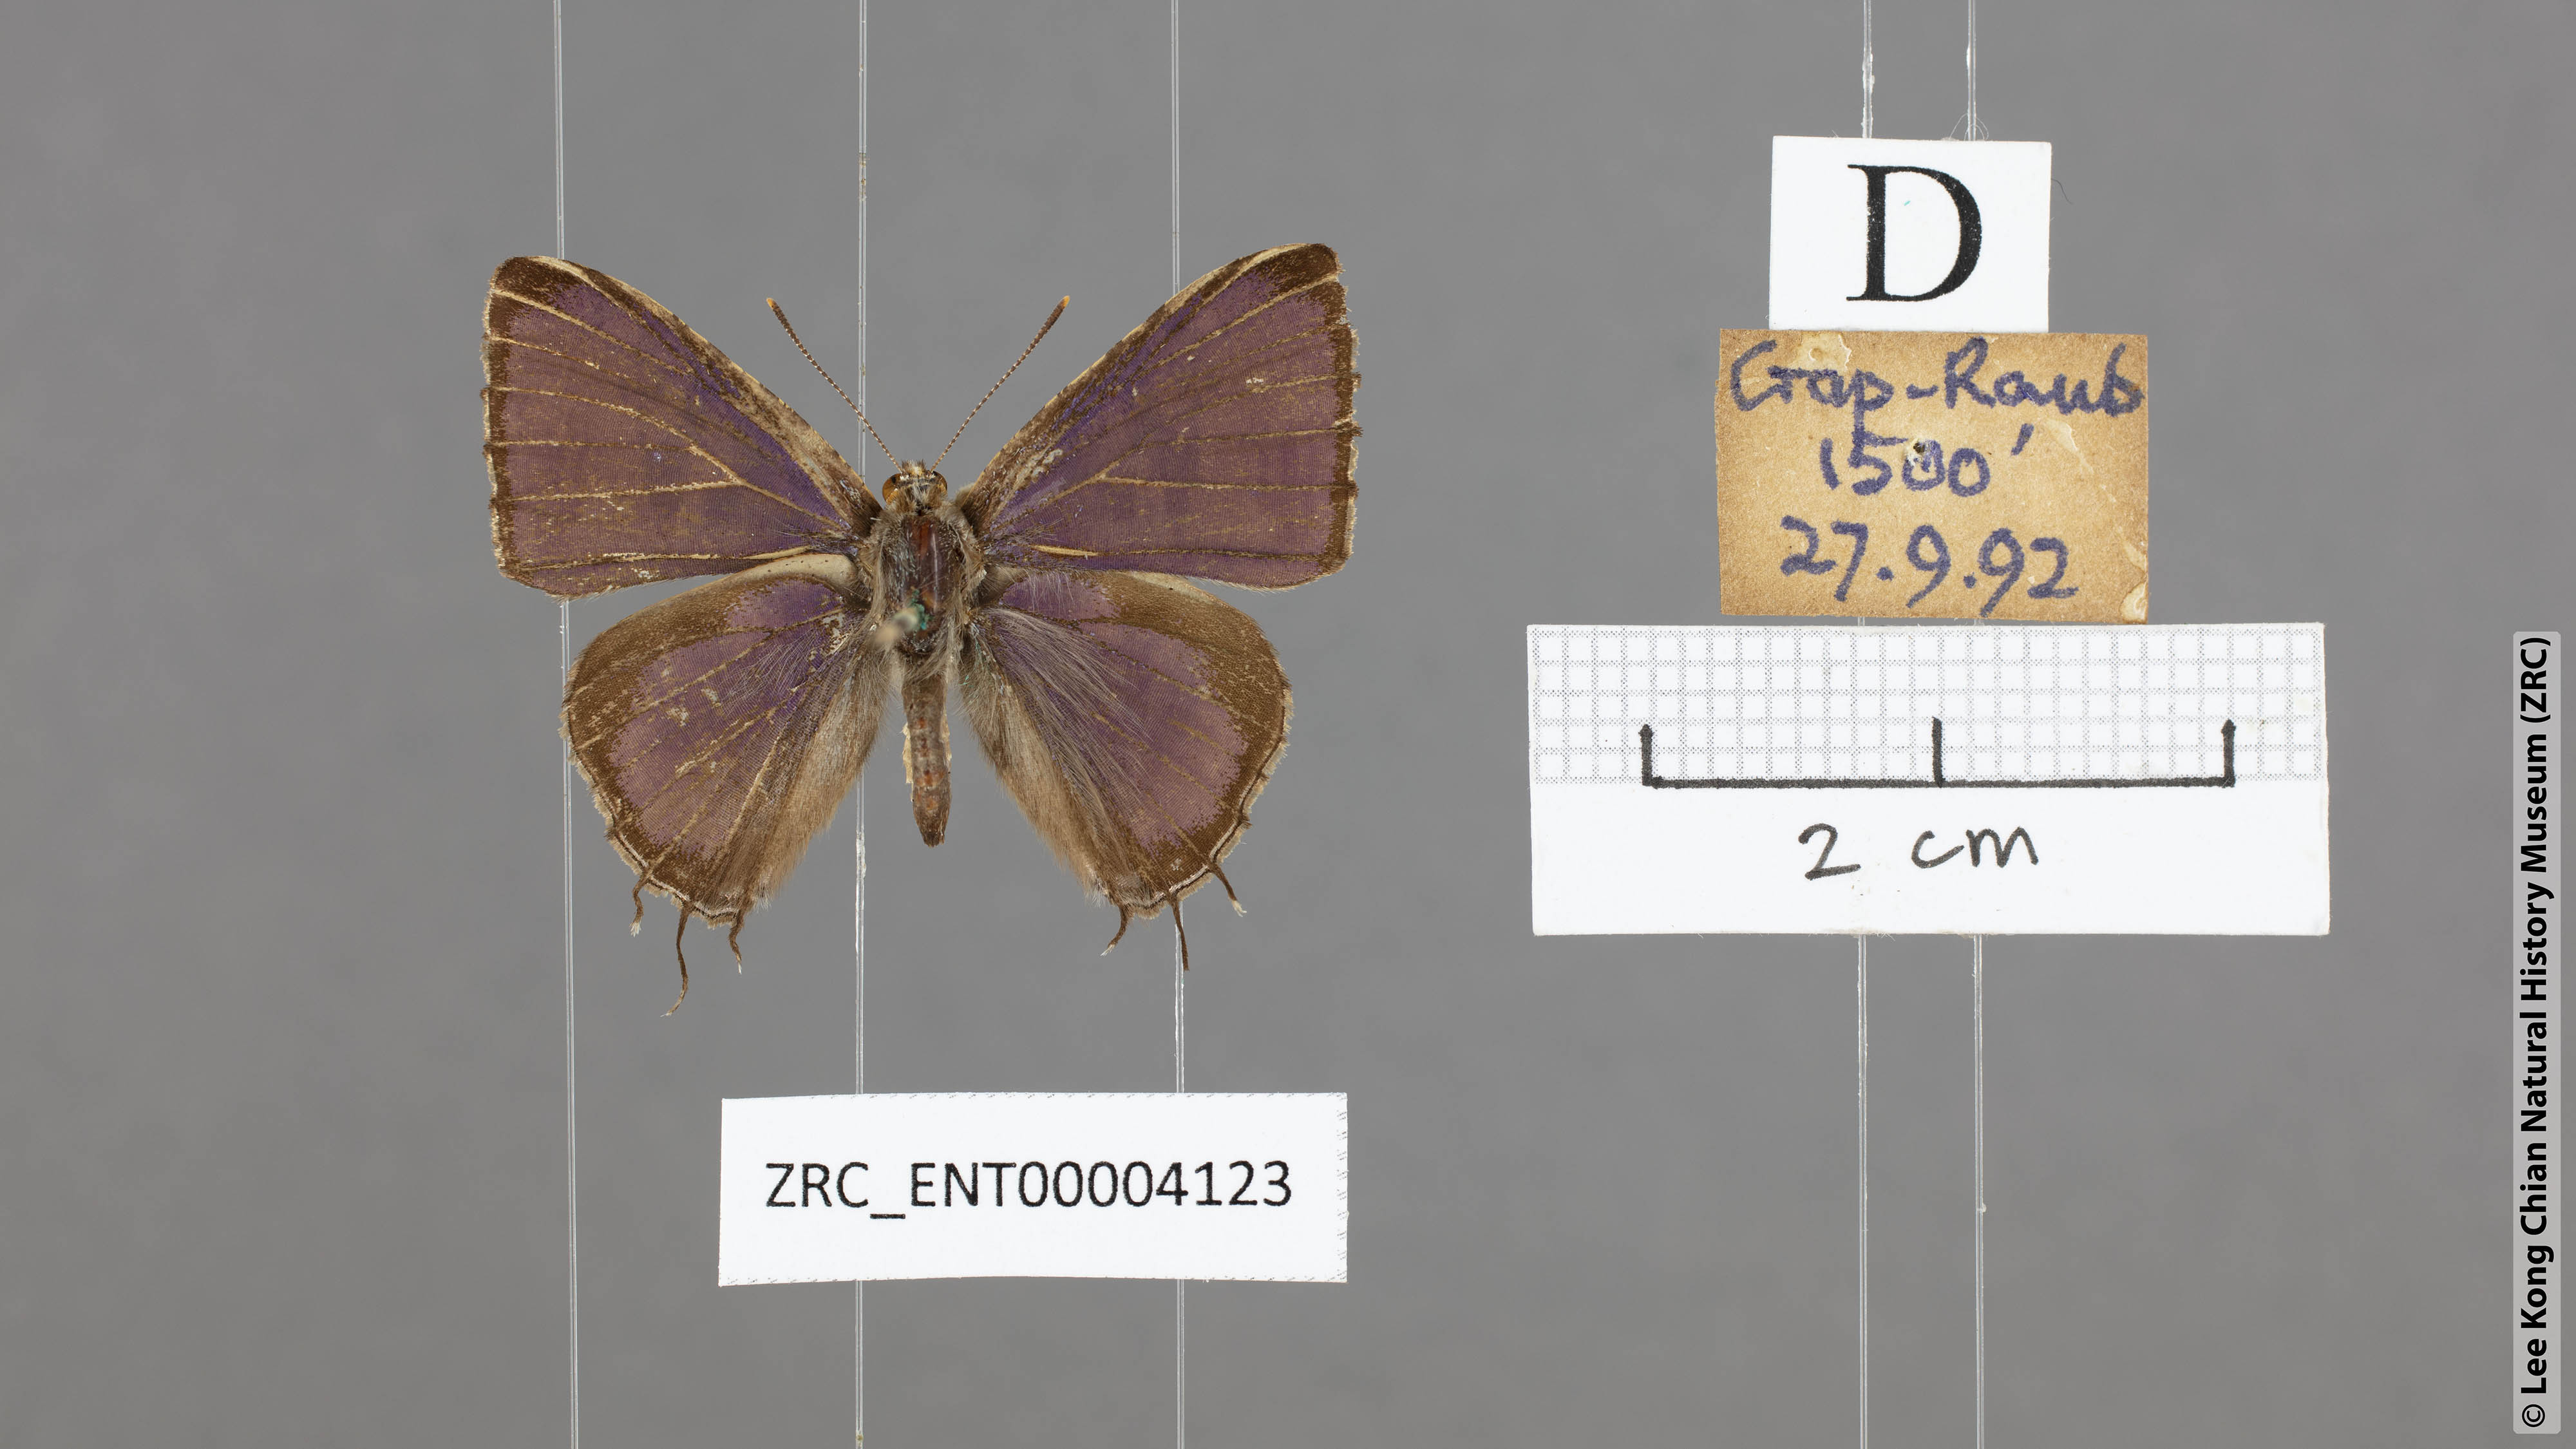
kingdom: Animalia
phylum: Arthropoda
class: Insecta
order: Lepidoptera
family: Lycaenidae
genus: Catapaecilma
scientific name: Catapaecilma major
